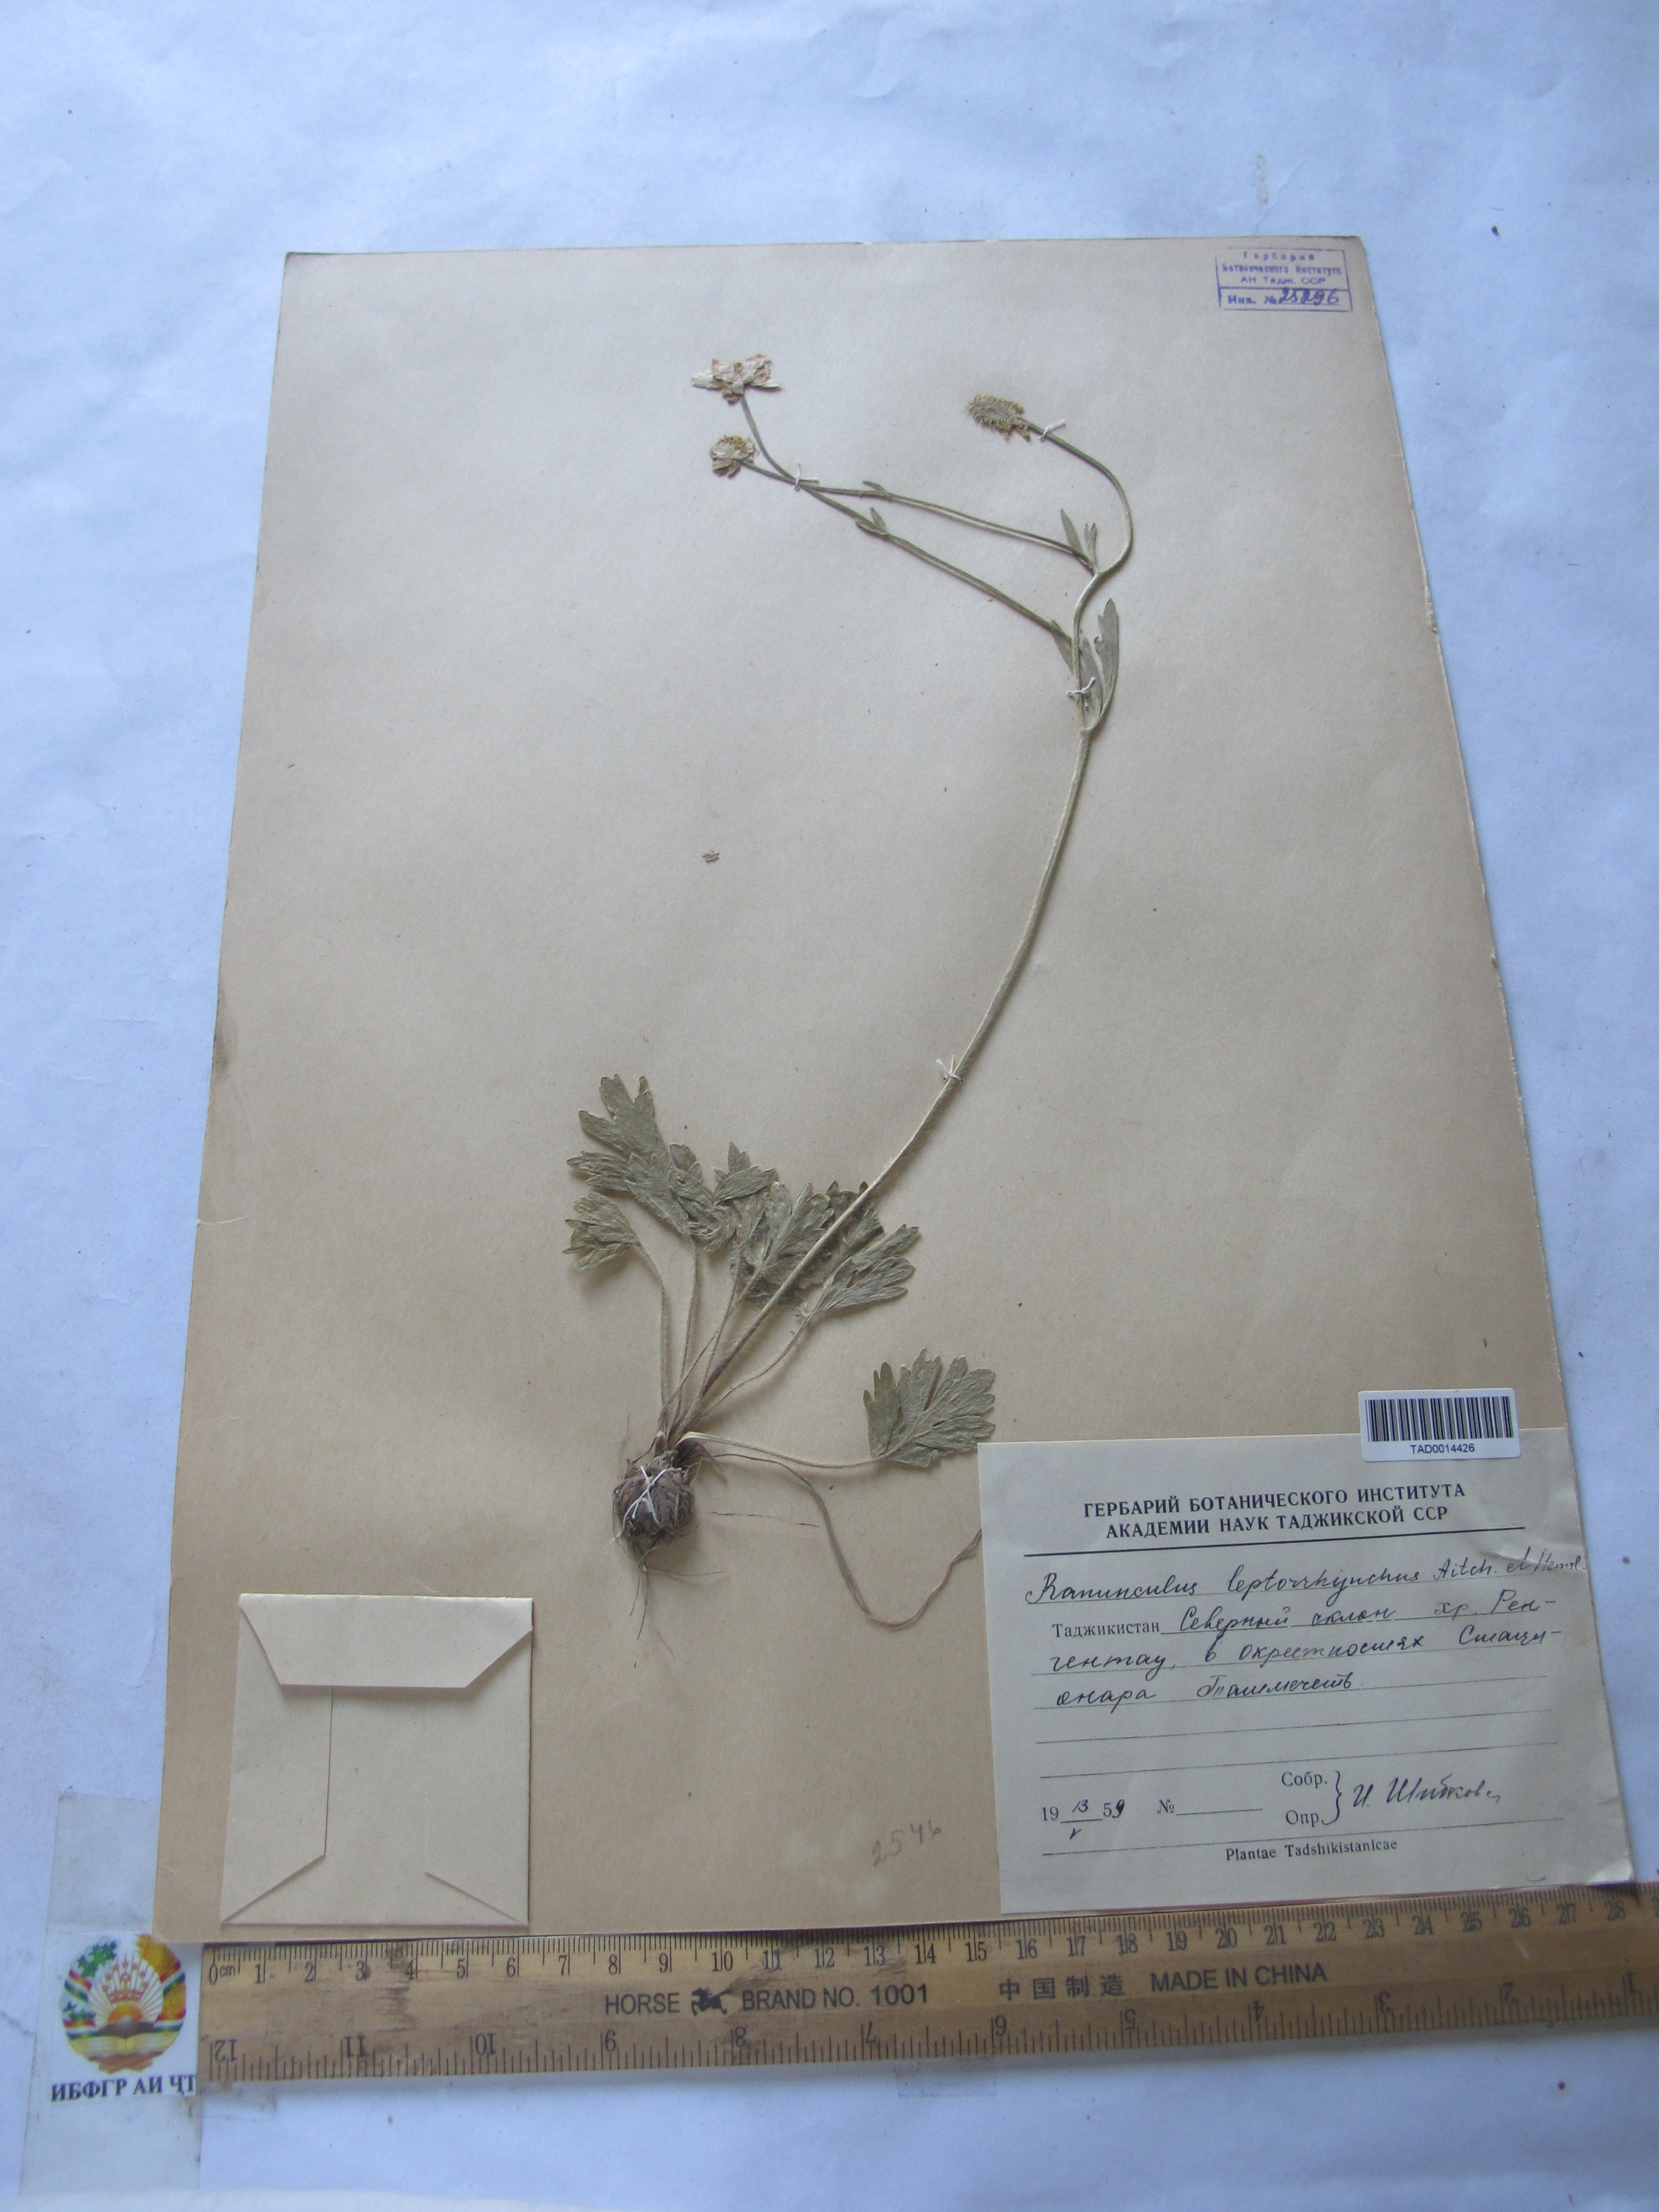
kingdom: Plantae
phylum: Tracheophyta
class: Magnoliopsida
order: Ranunculales
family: Ranunculaceae
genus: Ranunculus
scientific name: Ranunculus leptorrhynchus
